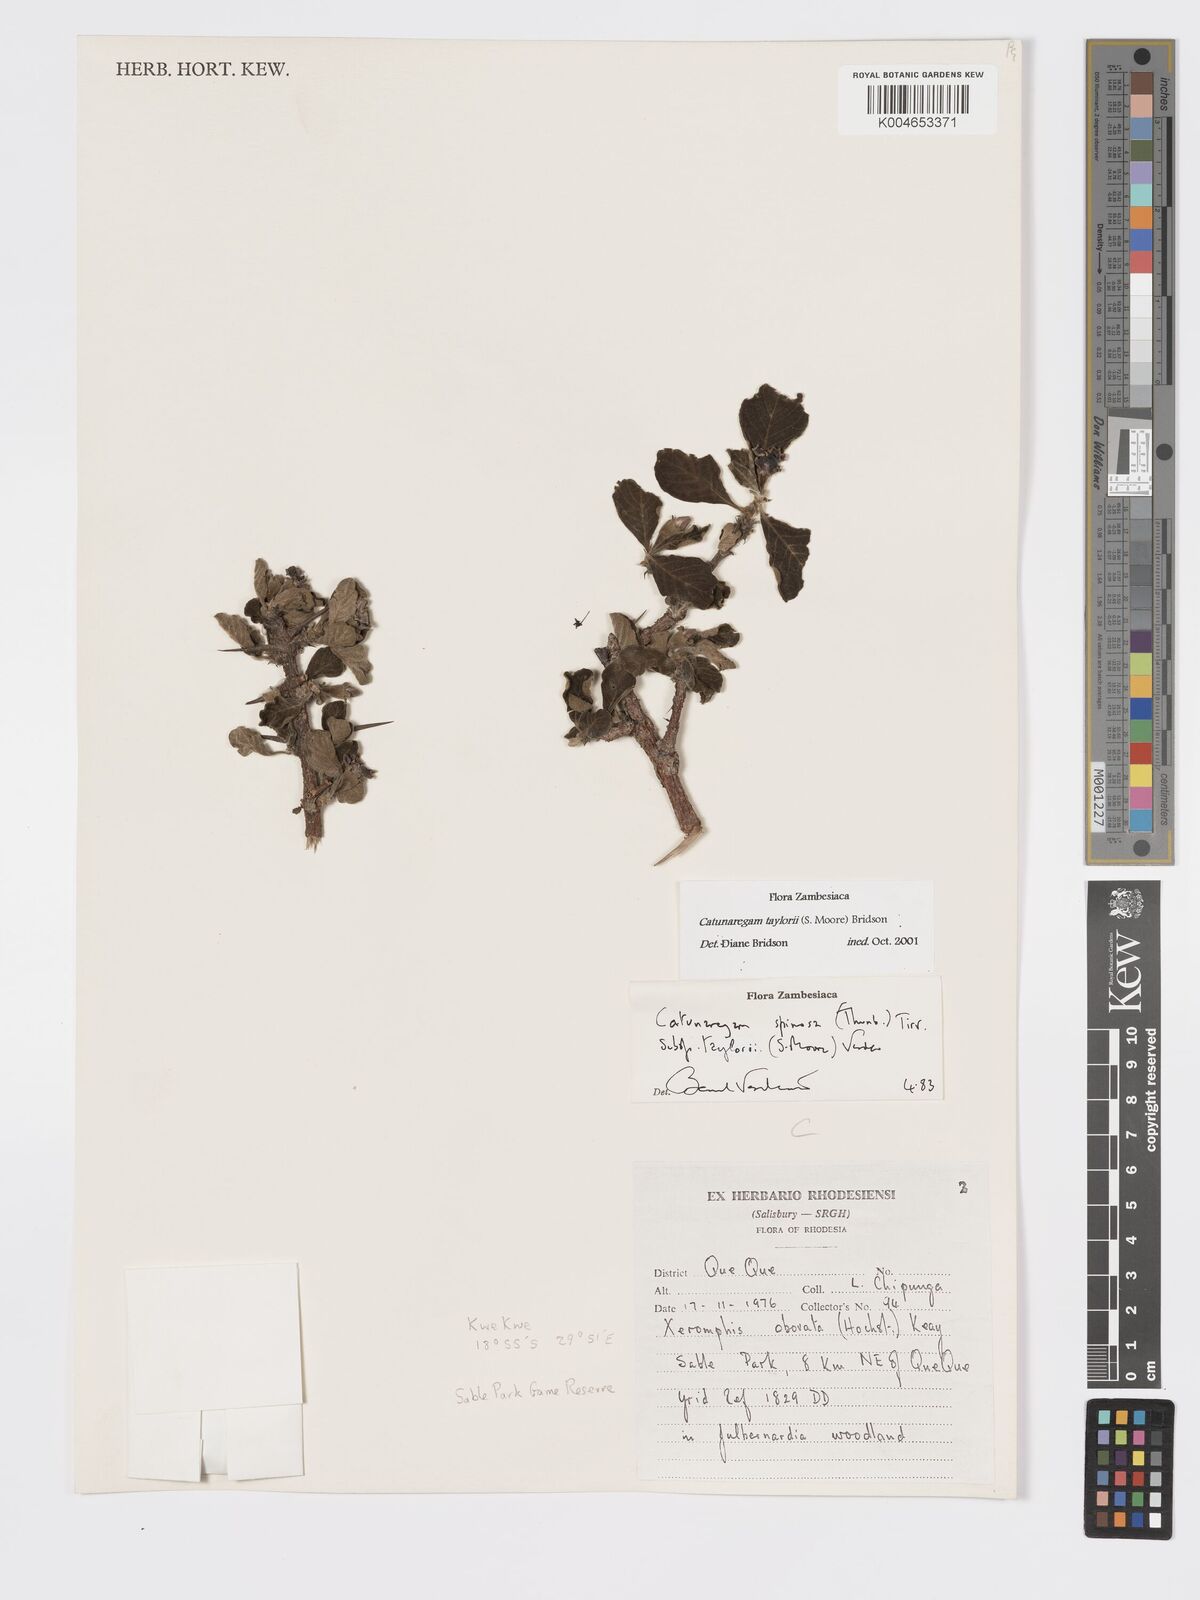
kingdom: Plantae
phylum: Tracheophyta
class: Magnoliopsida
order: Gentianales
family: Rubiaceae
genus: Catunaregam
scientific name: Catunaregam
